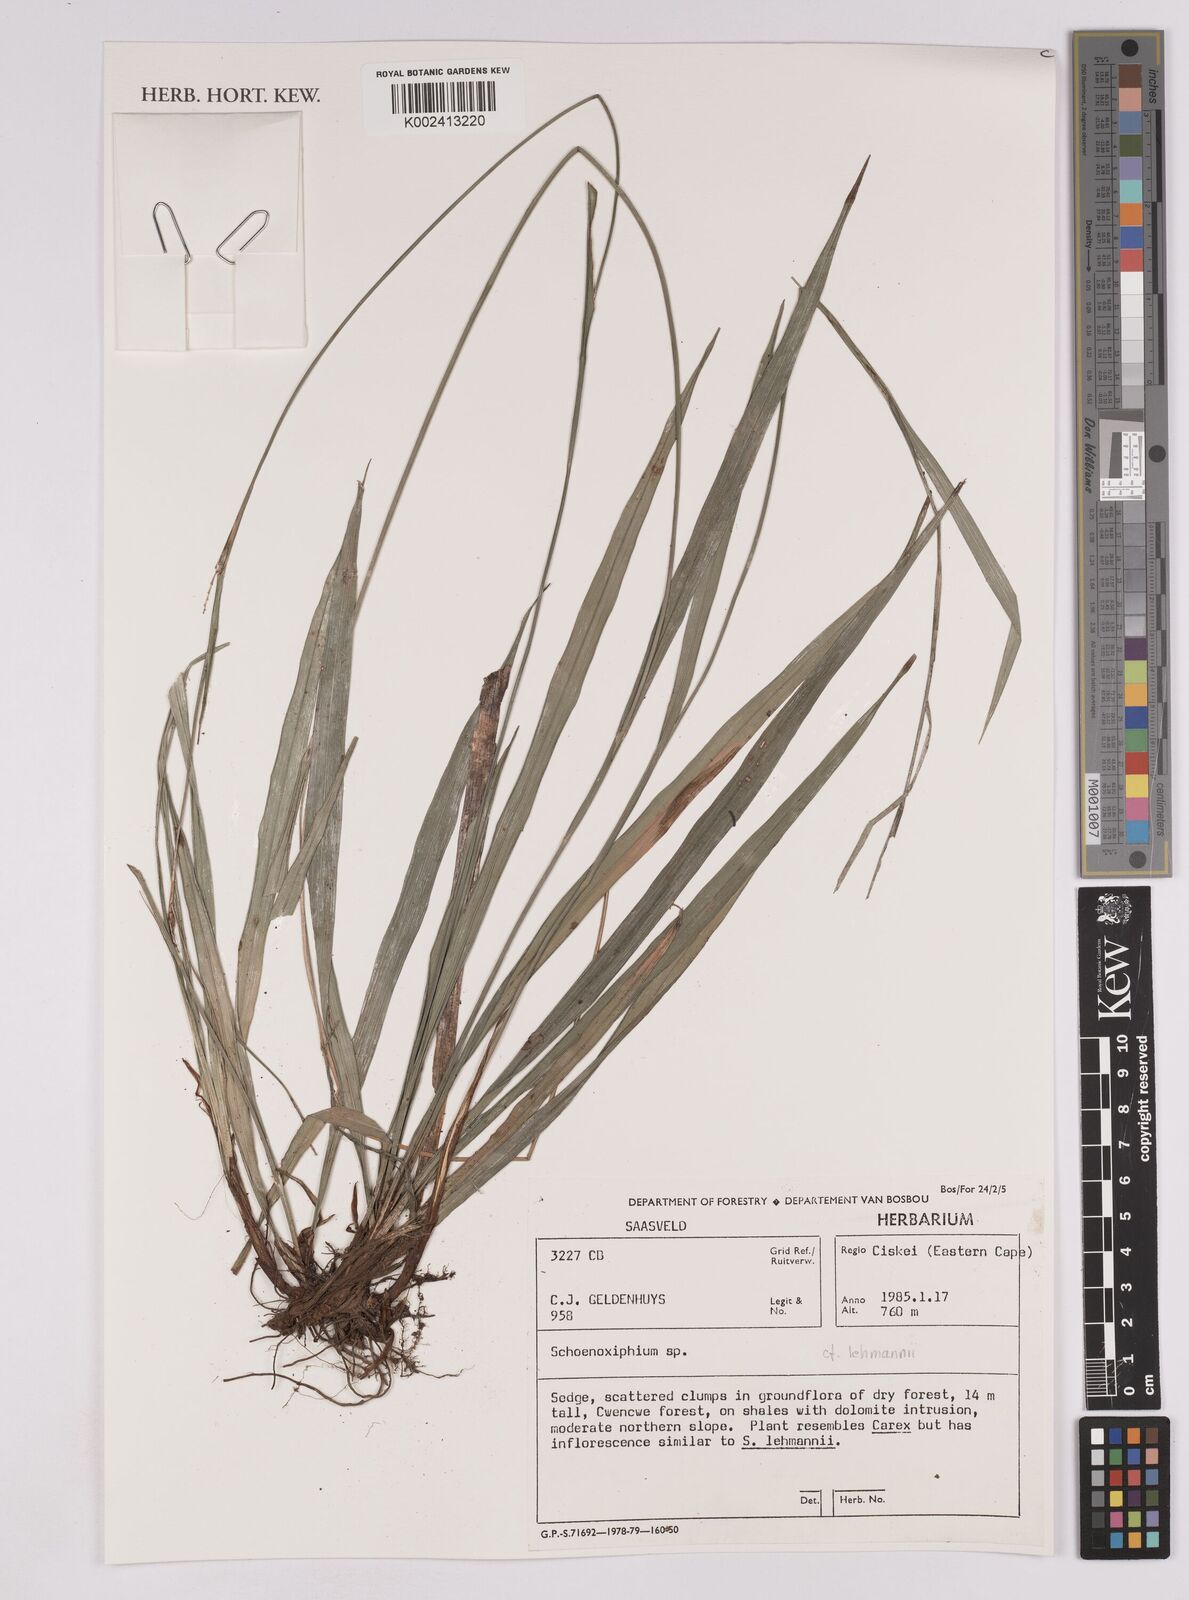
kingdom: Plantae
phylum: Tracheophyta
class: Liliopsida
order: Poales
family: Cyperaceae
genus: Carex
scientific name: Carex uhligii
